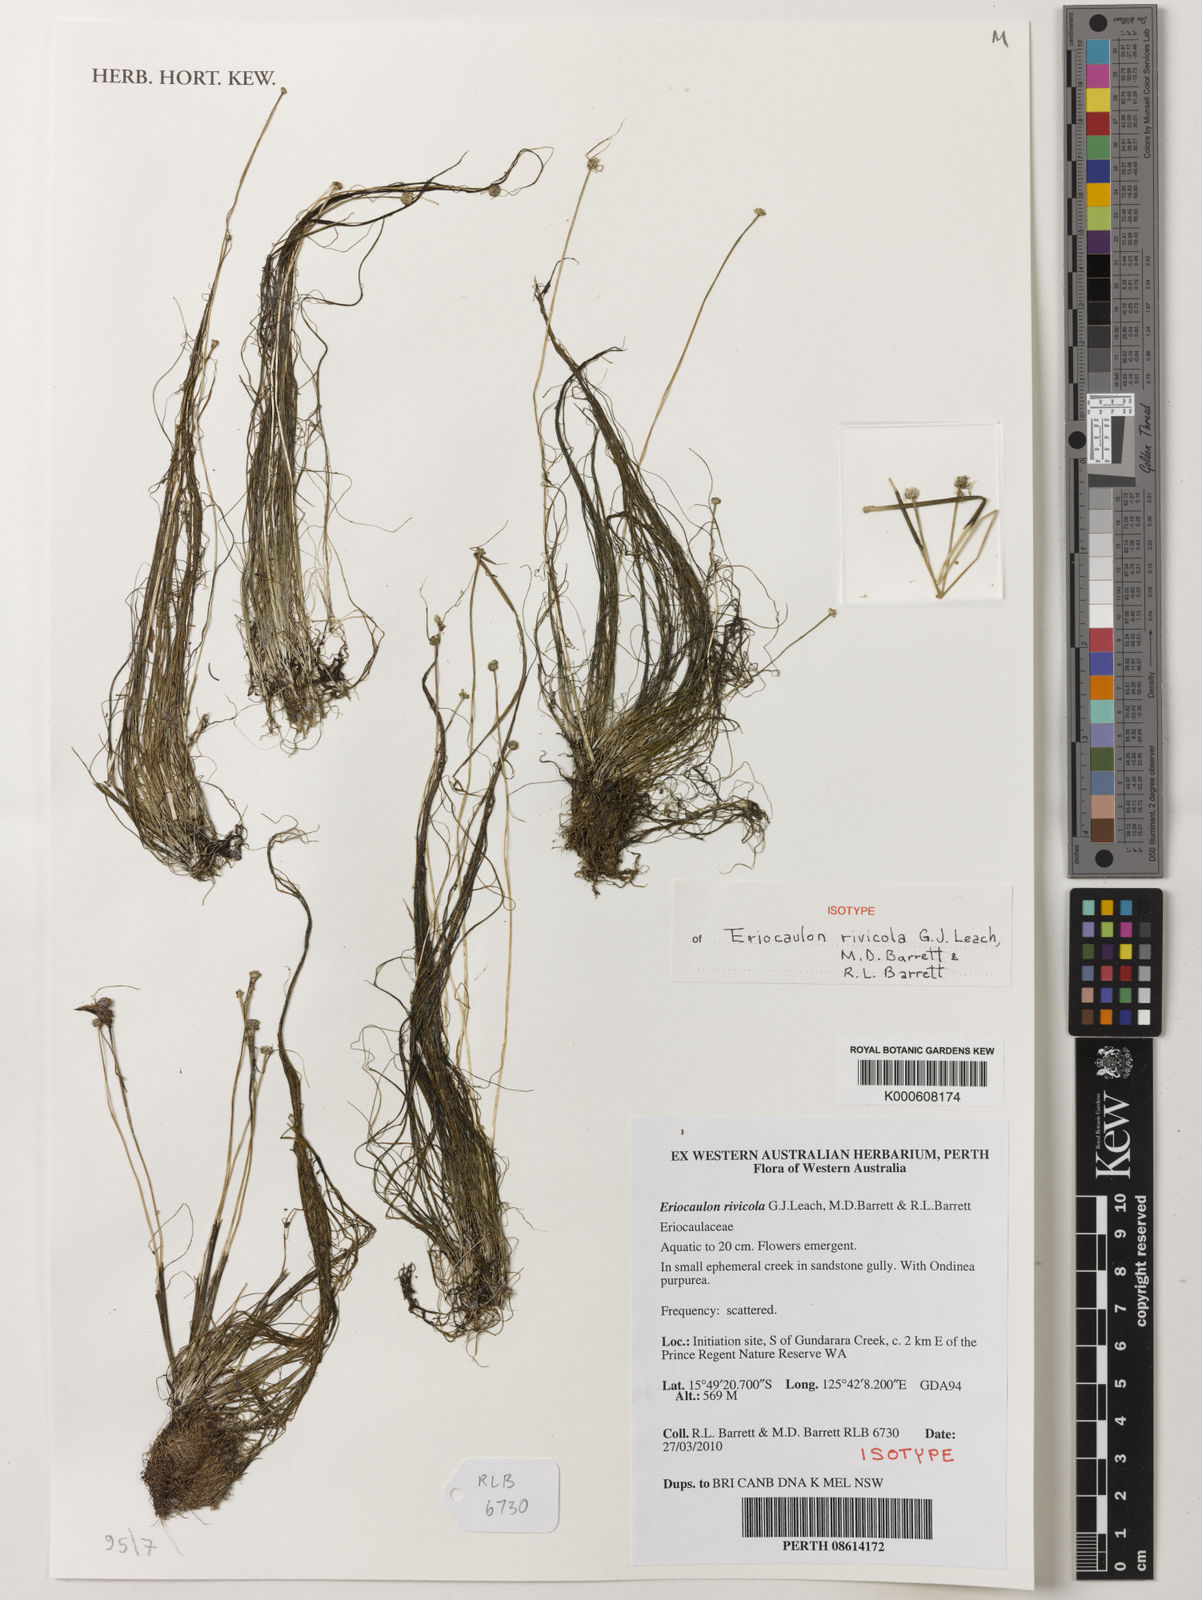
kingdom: Plantae
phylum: Tracheophyta
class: Liliopsida
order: Poales
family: Eriocaulaceae
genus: Eriocaulon
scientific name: Eriocaulon rivicola
